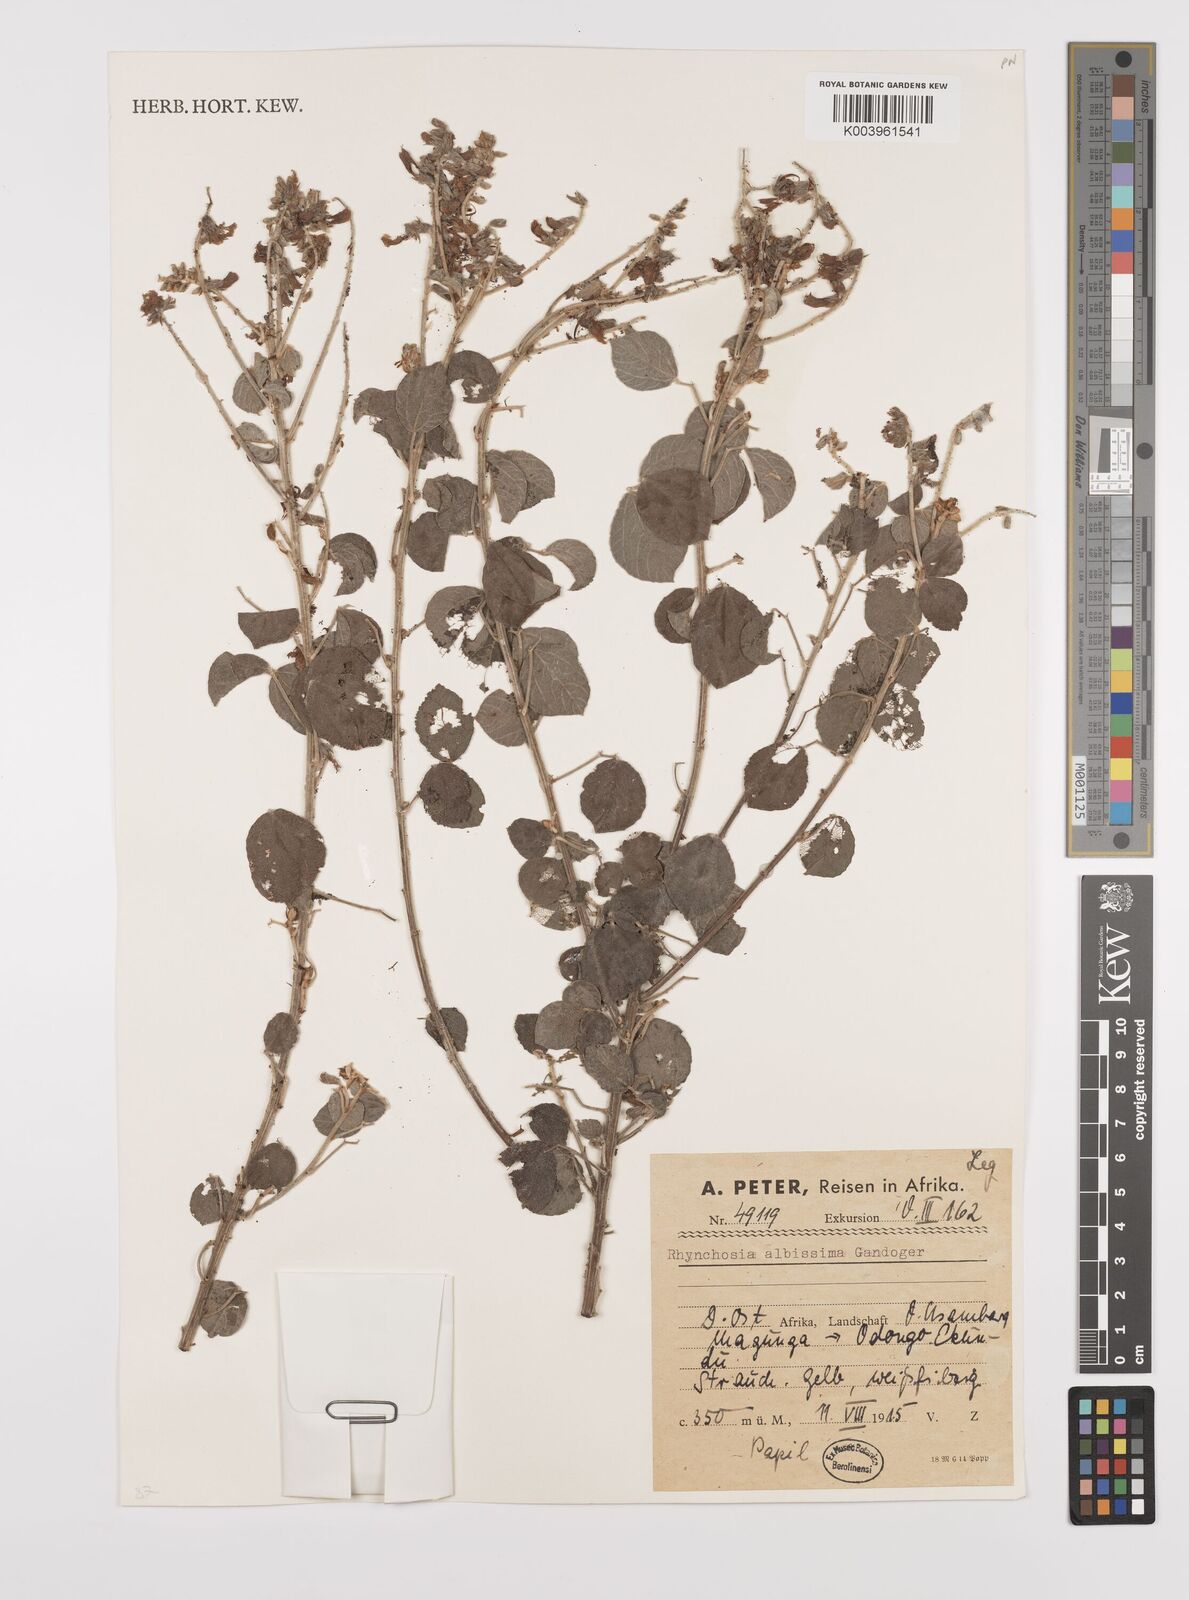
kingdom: Plantae
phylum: Tracheophyta
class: Magnoliopsida
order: Fabales
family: Fabaceae
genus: Rhynchosia
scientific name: Rhynchosia albissima
